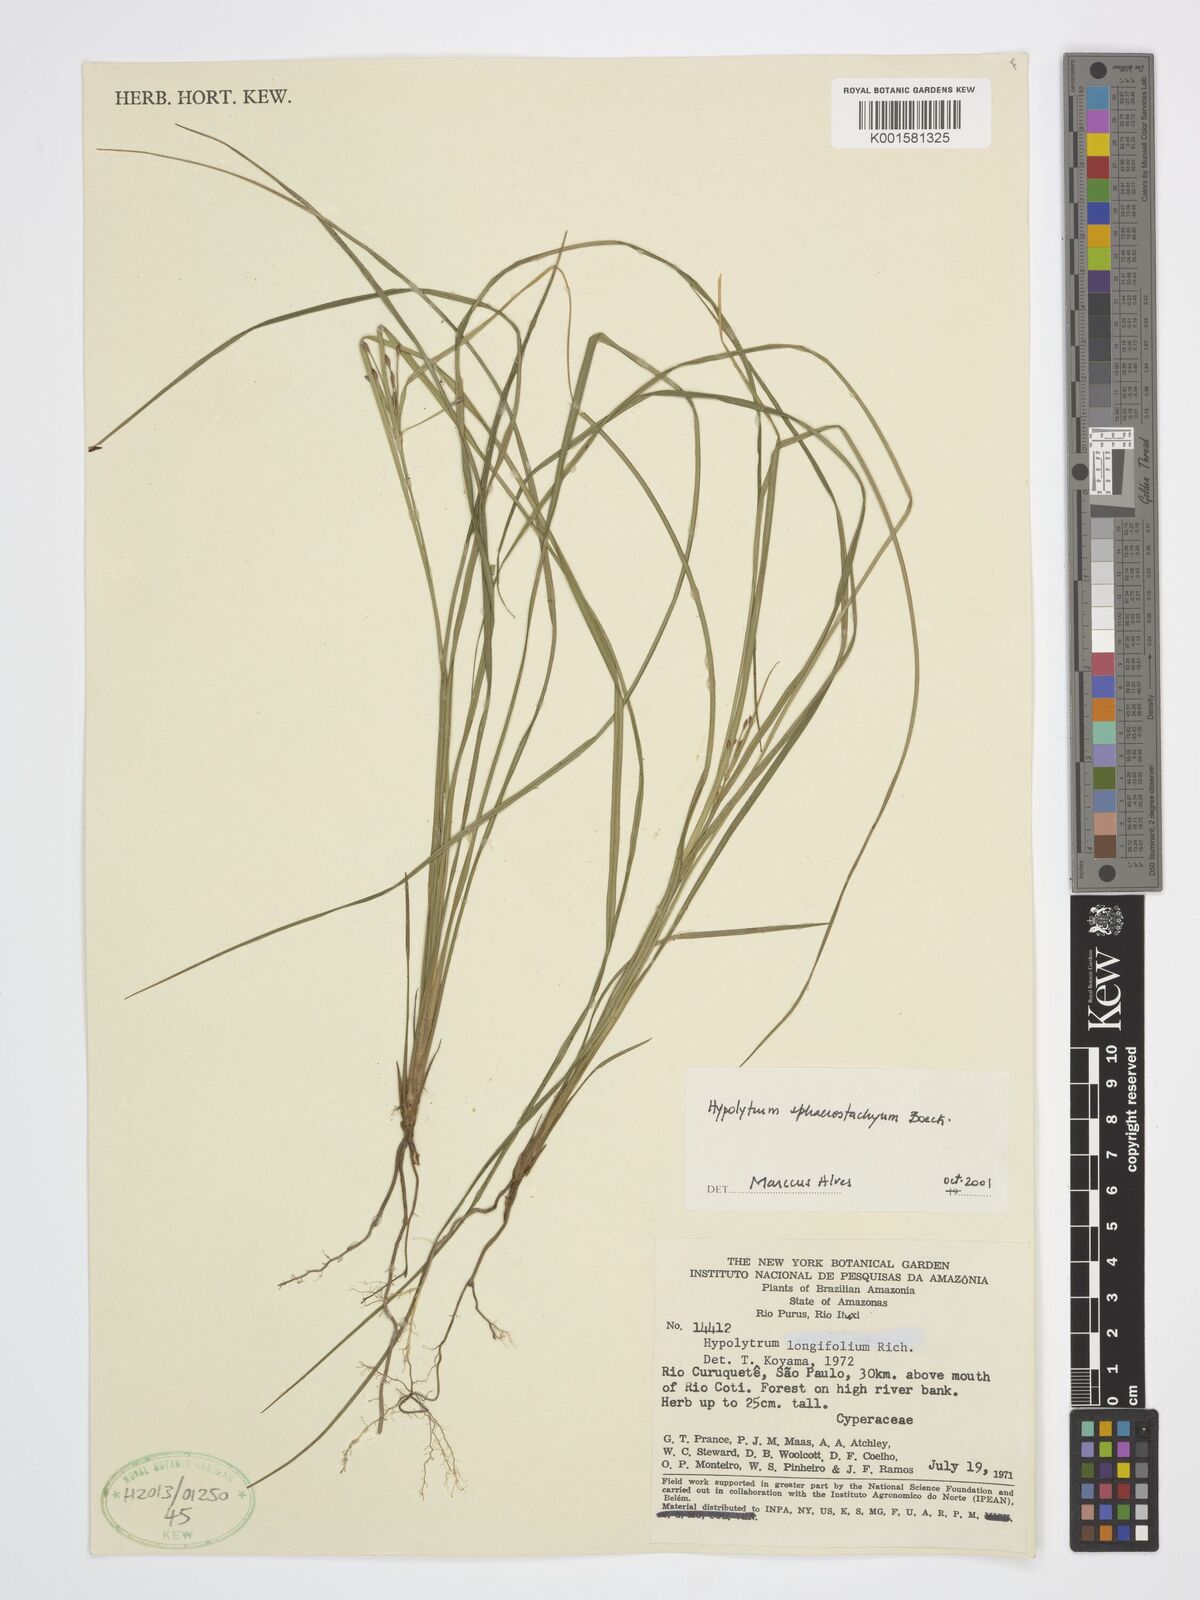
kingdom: Plantae
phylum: Tracheophyta
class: Liliopsida
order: Poales
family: Cyperaceae
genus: Hypolytrum
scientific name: Hypolytrum sphaerostachyum
